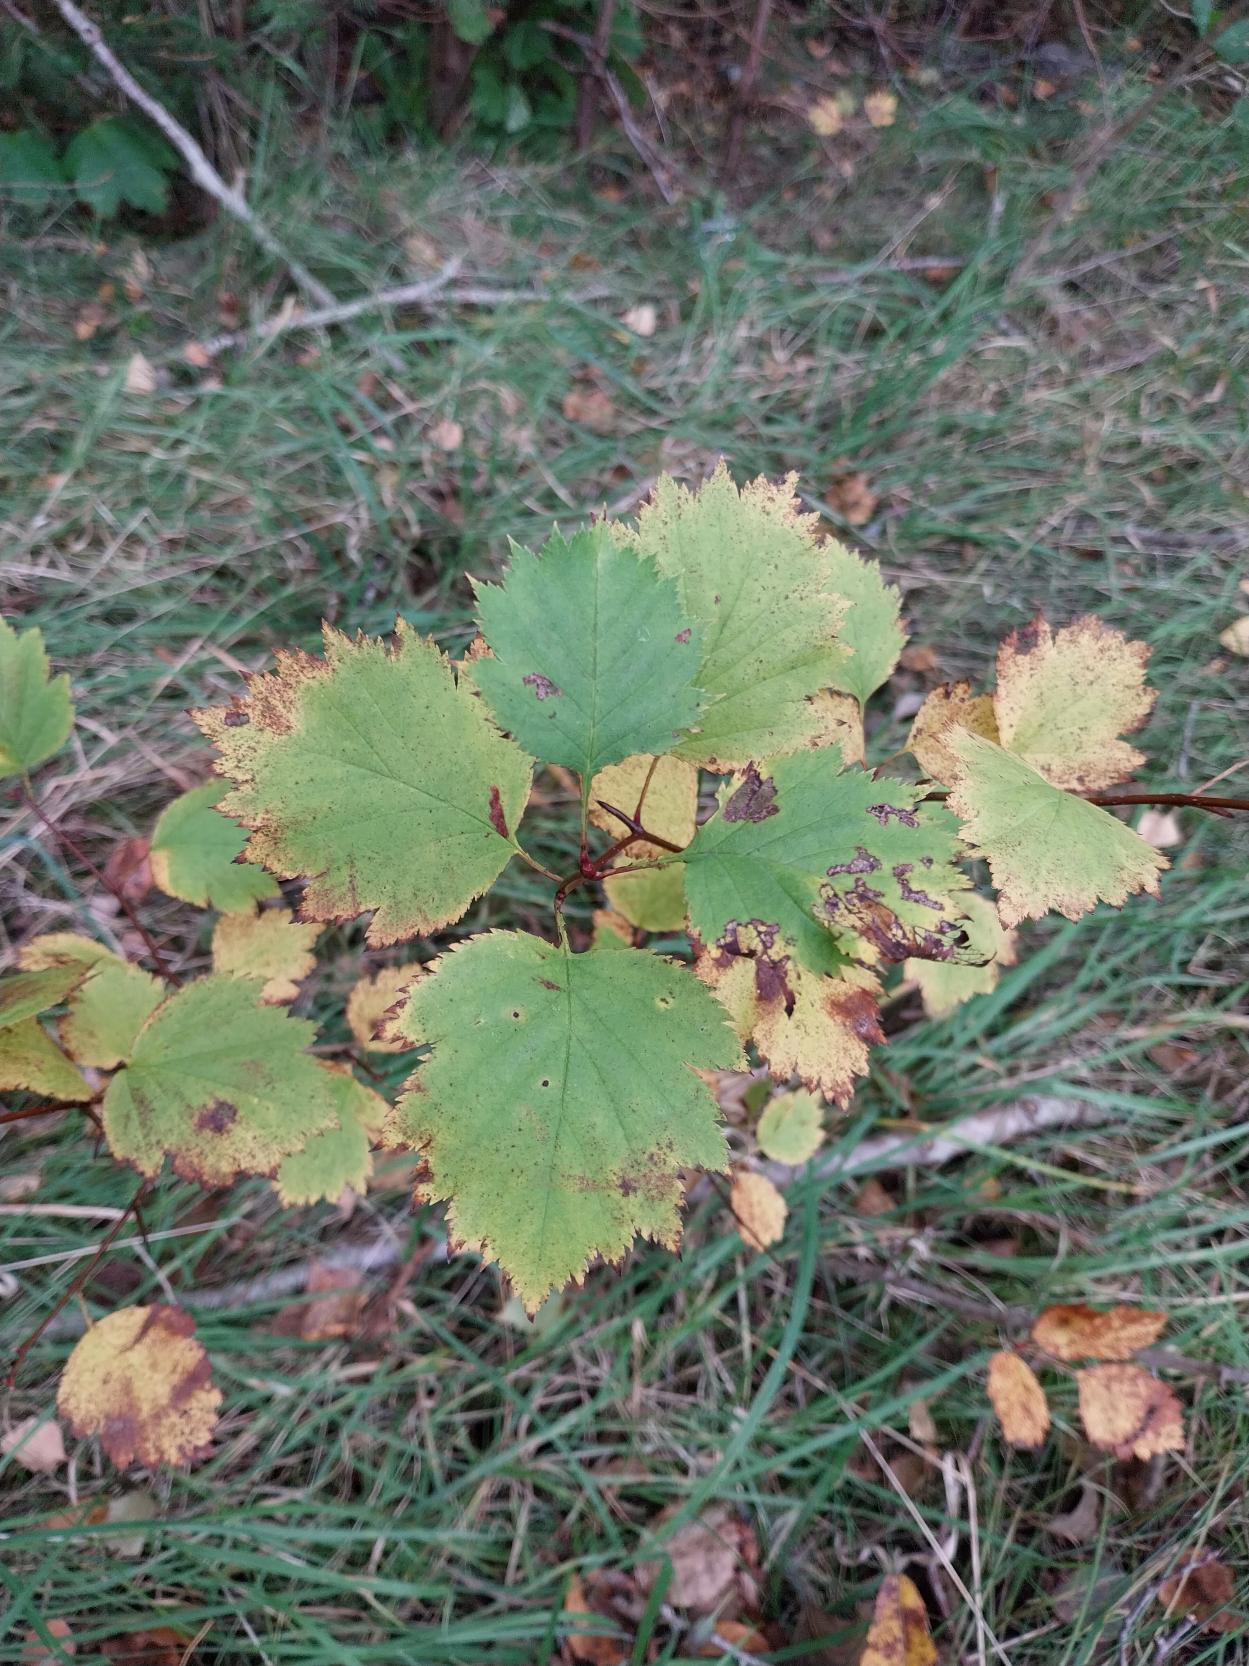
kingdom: Plantae
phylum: Tracheophyta
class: Magnoliopsida
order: Rosales
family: Rosaceae
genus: Crataegus
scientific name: Crataegus coccinea
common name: Skarlagentjørn
